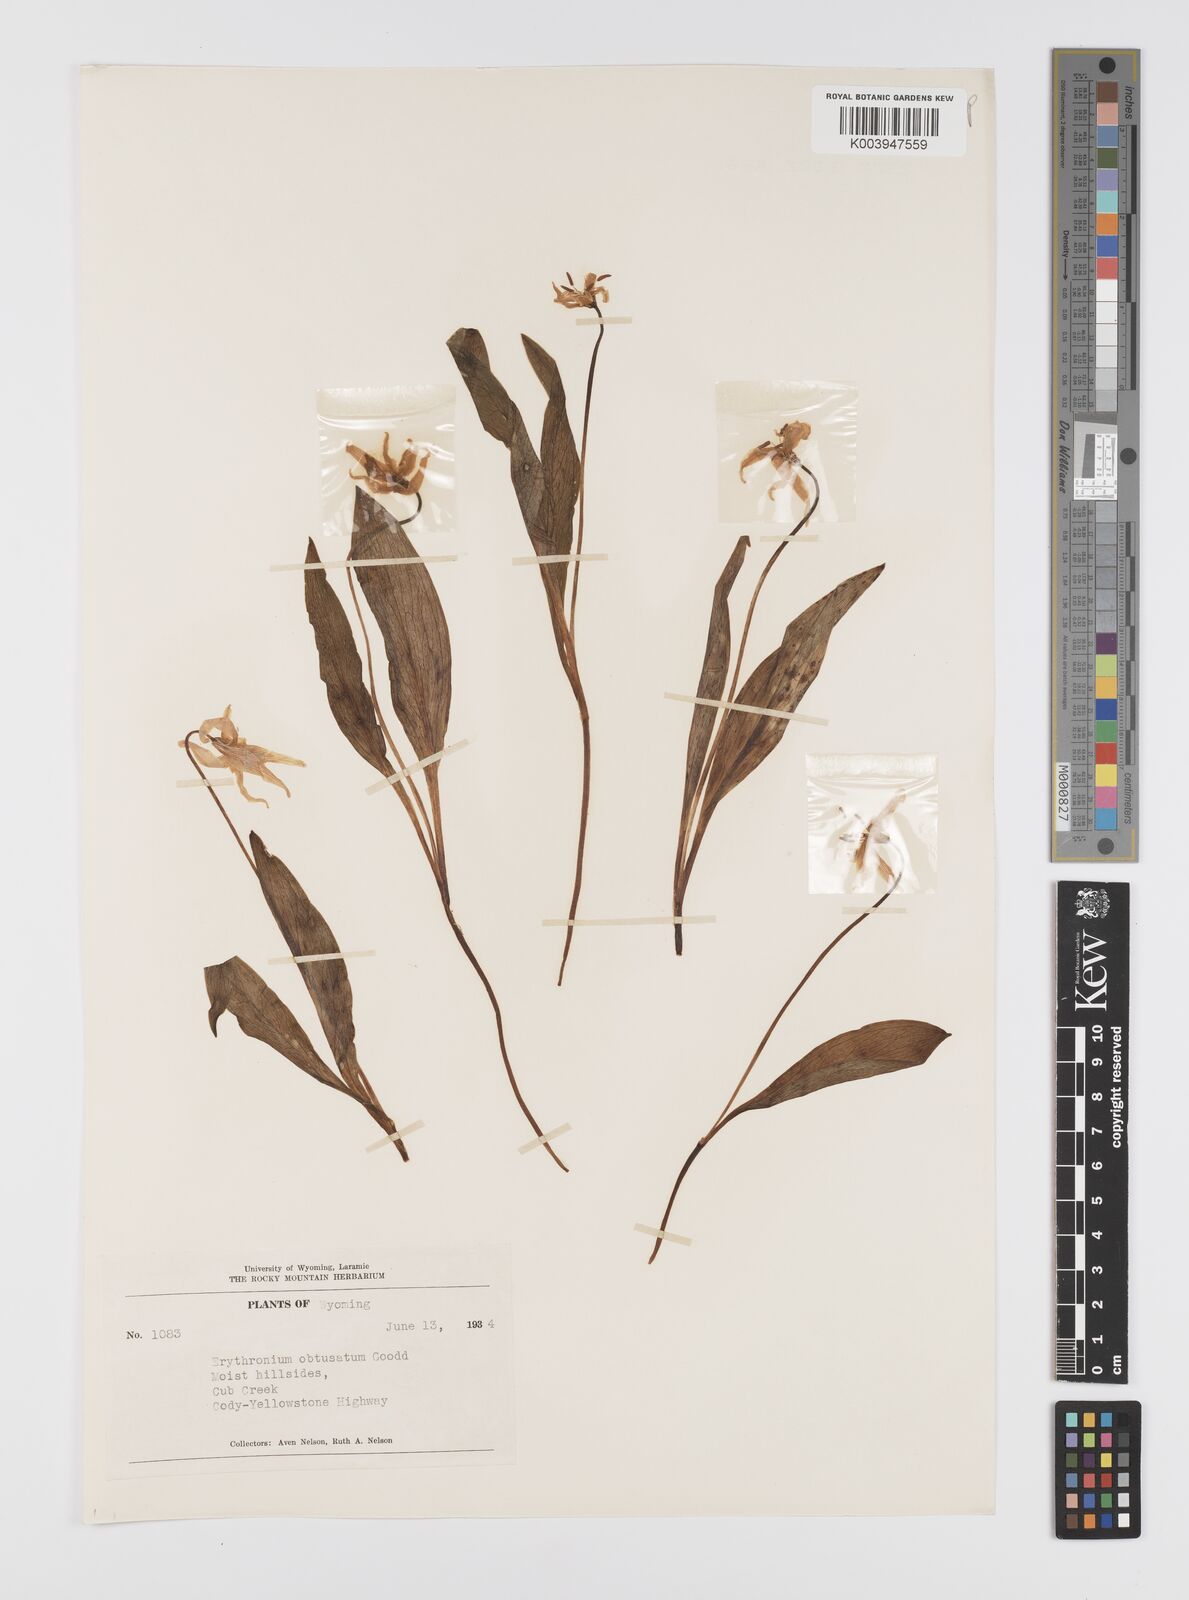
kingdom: Plantae
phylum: Tracheophyta
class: Liliopsida
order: Liliales
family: Liliaceae
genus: Erythronium
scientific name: Erythronium grandiflorum
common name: Avalanche-lily
